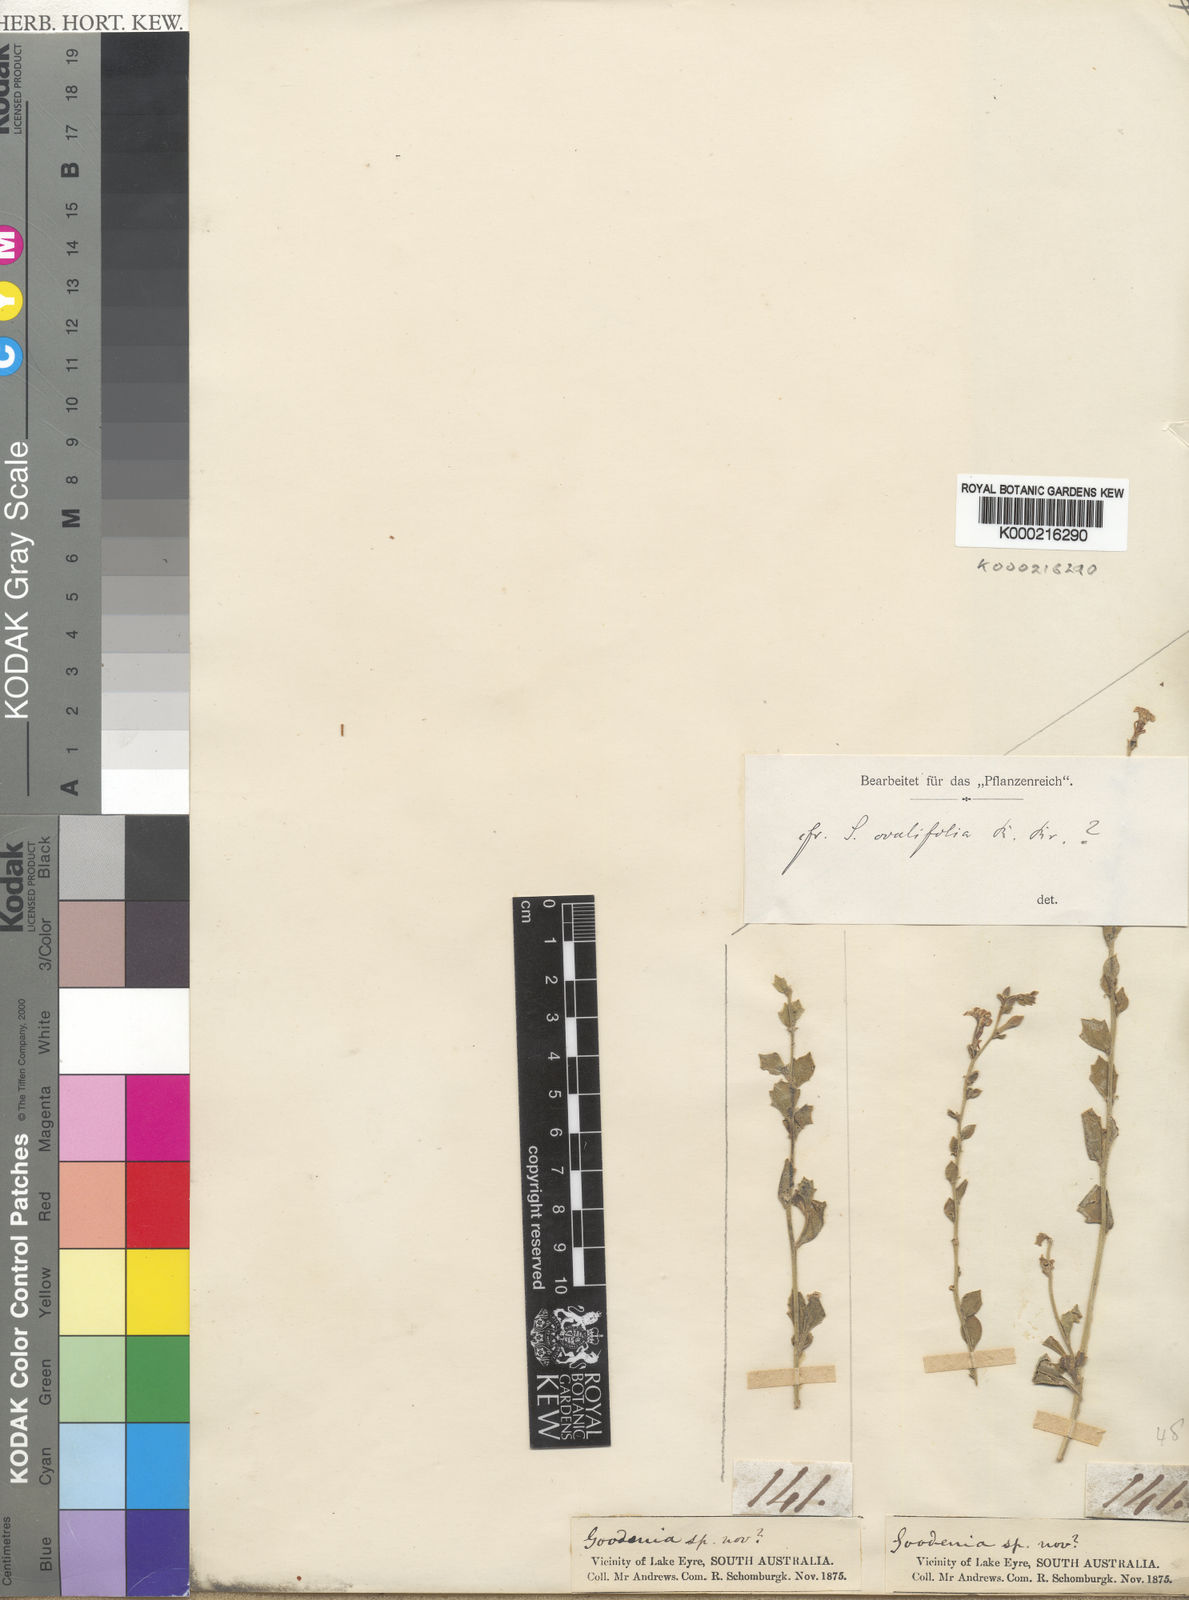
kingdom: Plantae
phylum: Tracheophyta
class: Magnoliopsida
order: Asterales
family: Goodeniaceae
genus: Scaevola
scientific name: Scaevola ovalifolia
